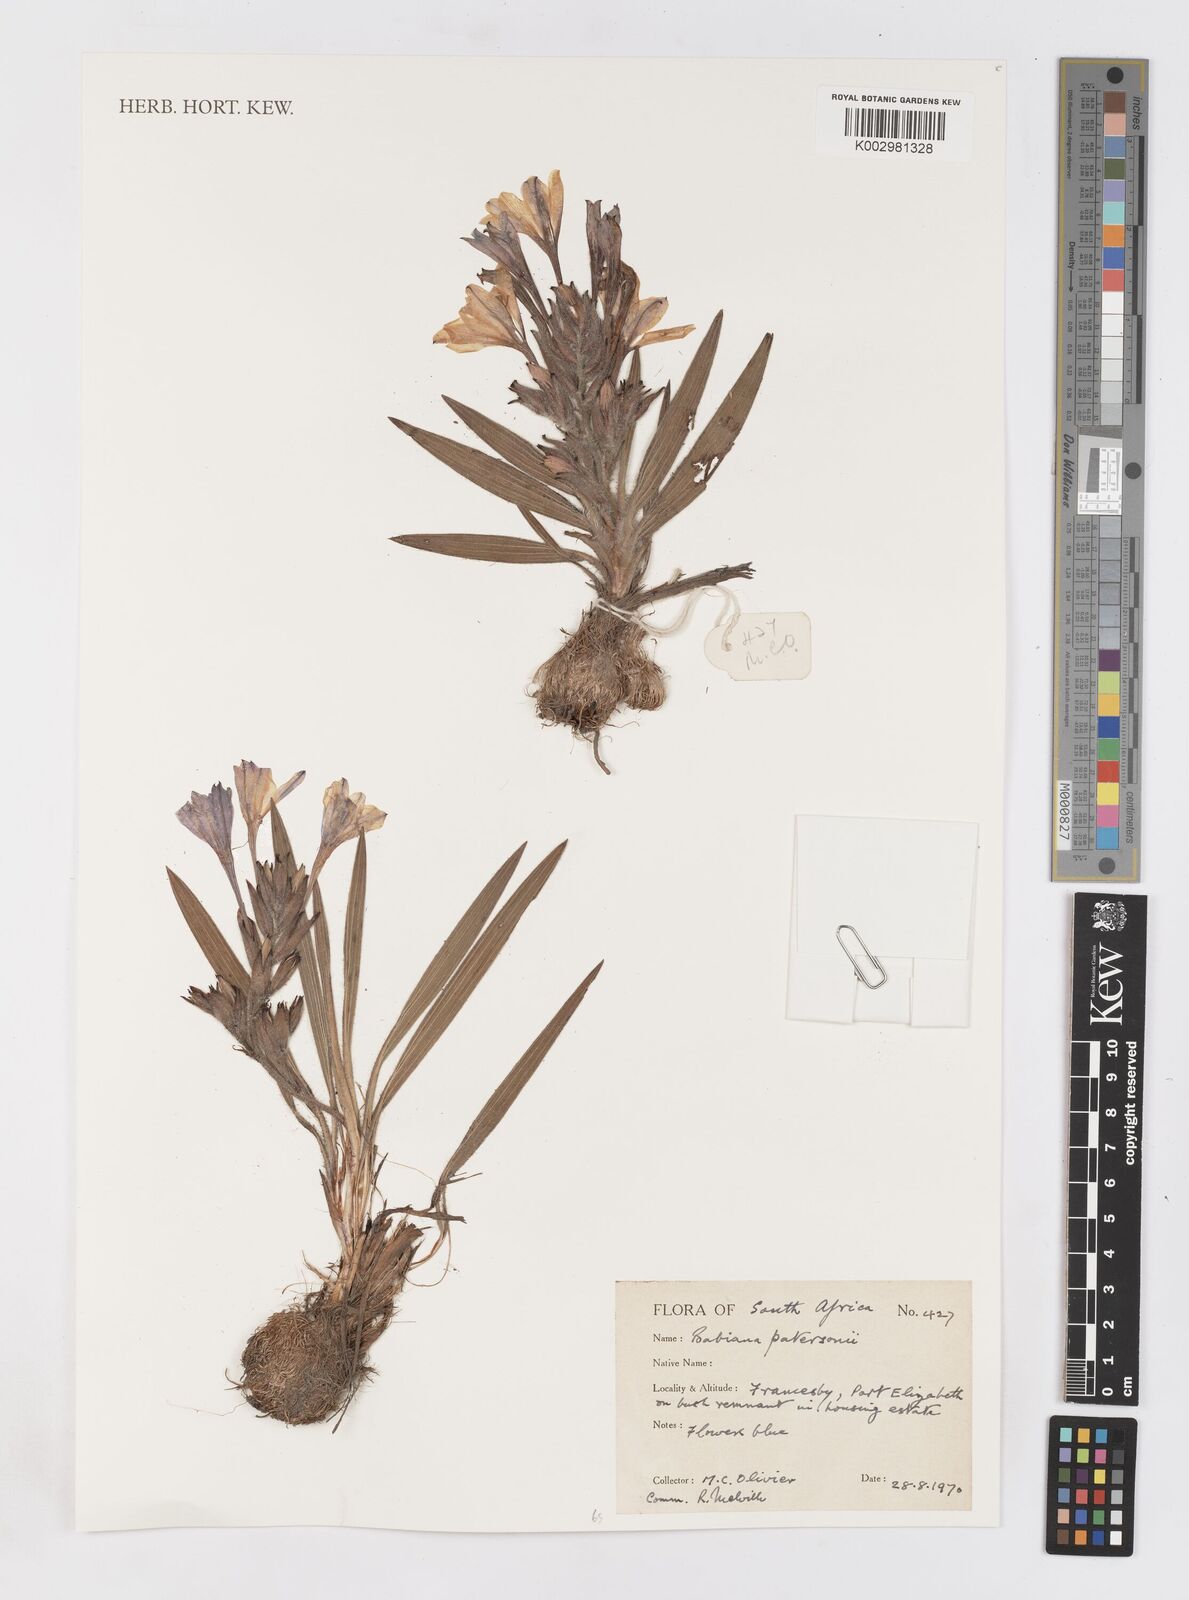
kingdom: Plantae
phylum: Tracheophyta
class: Liliopsida
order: Asparagales
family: Iridaceae
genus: Babiana
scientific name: Babiana patersoniae
